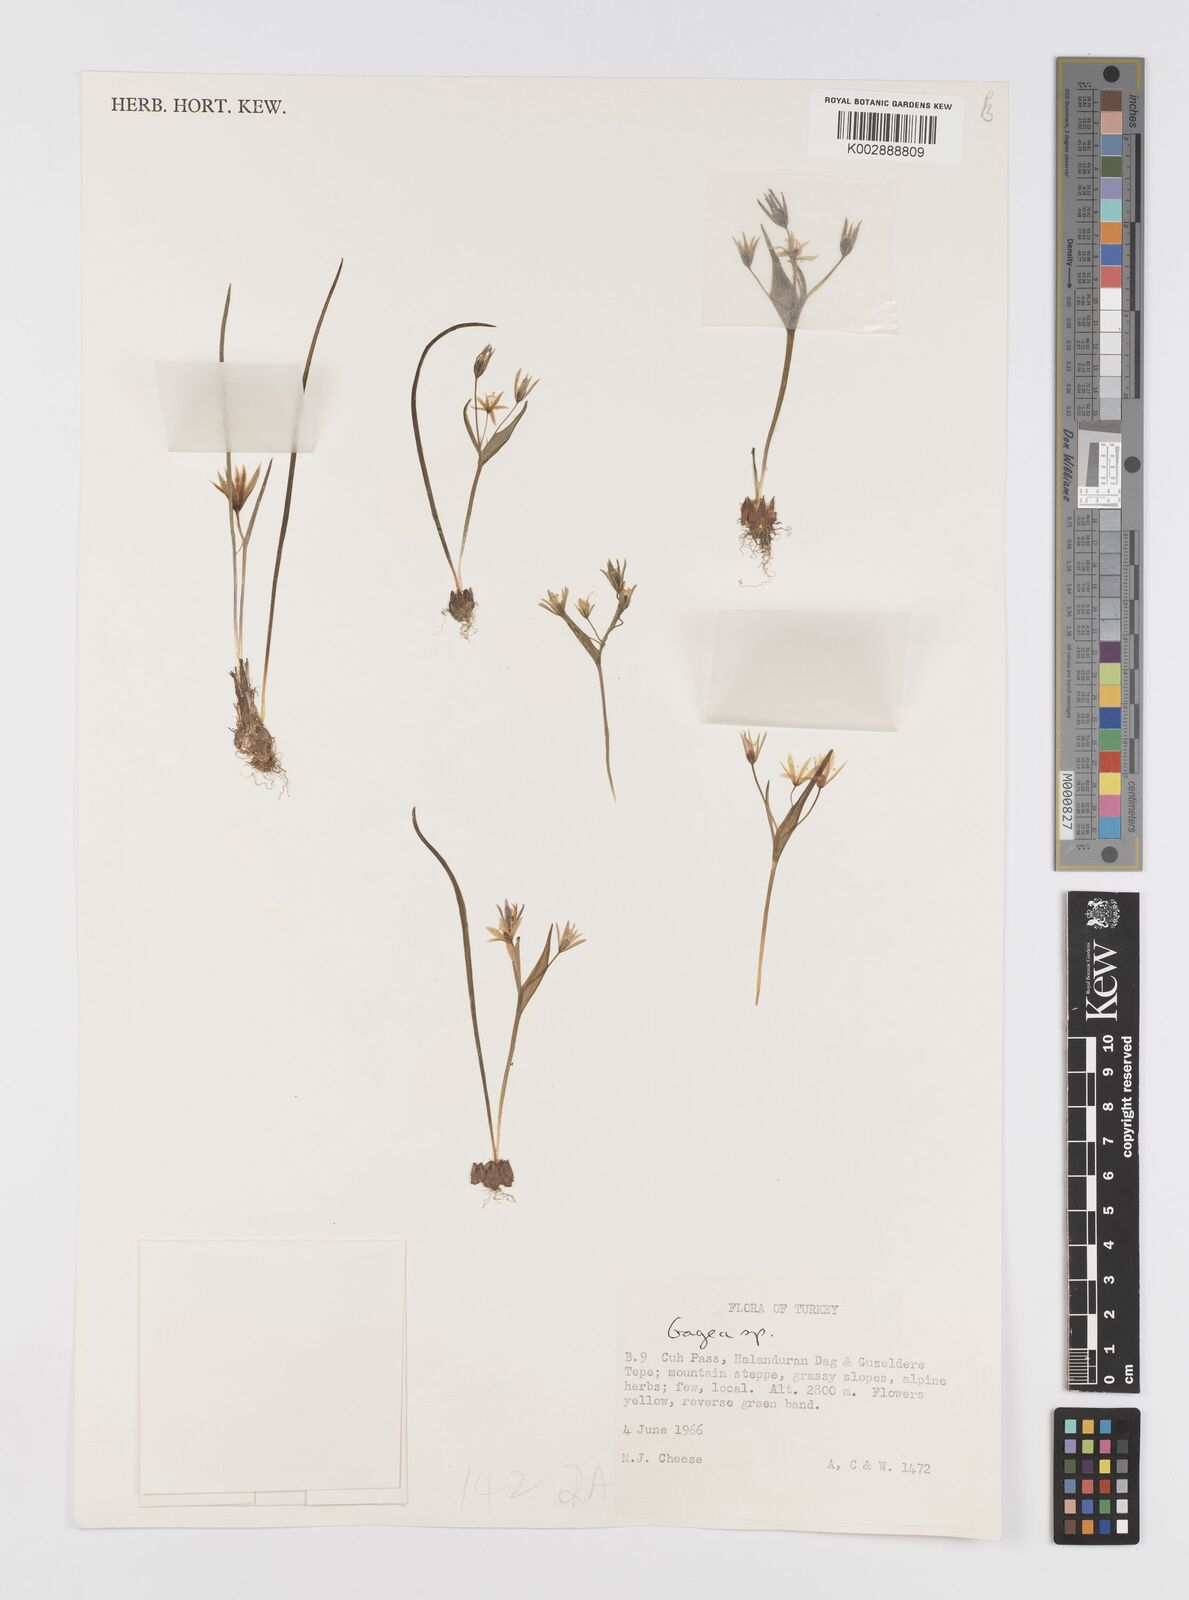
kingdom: Plantae
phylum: Tracheophyta
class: Liliopsida
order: Liliales
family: Liliaceae
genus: Gagea
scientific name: Gagea
